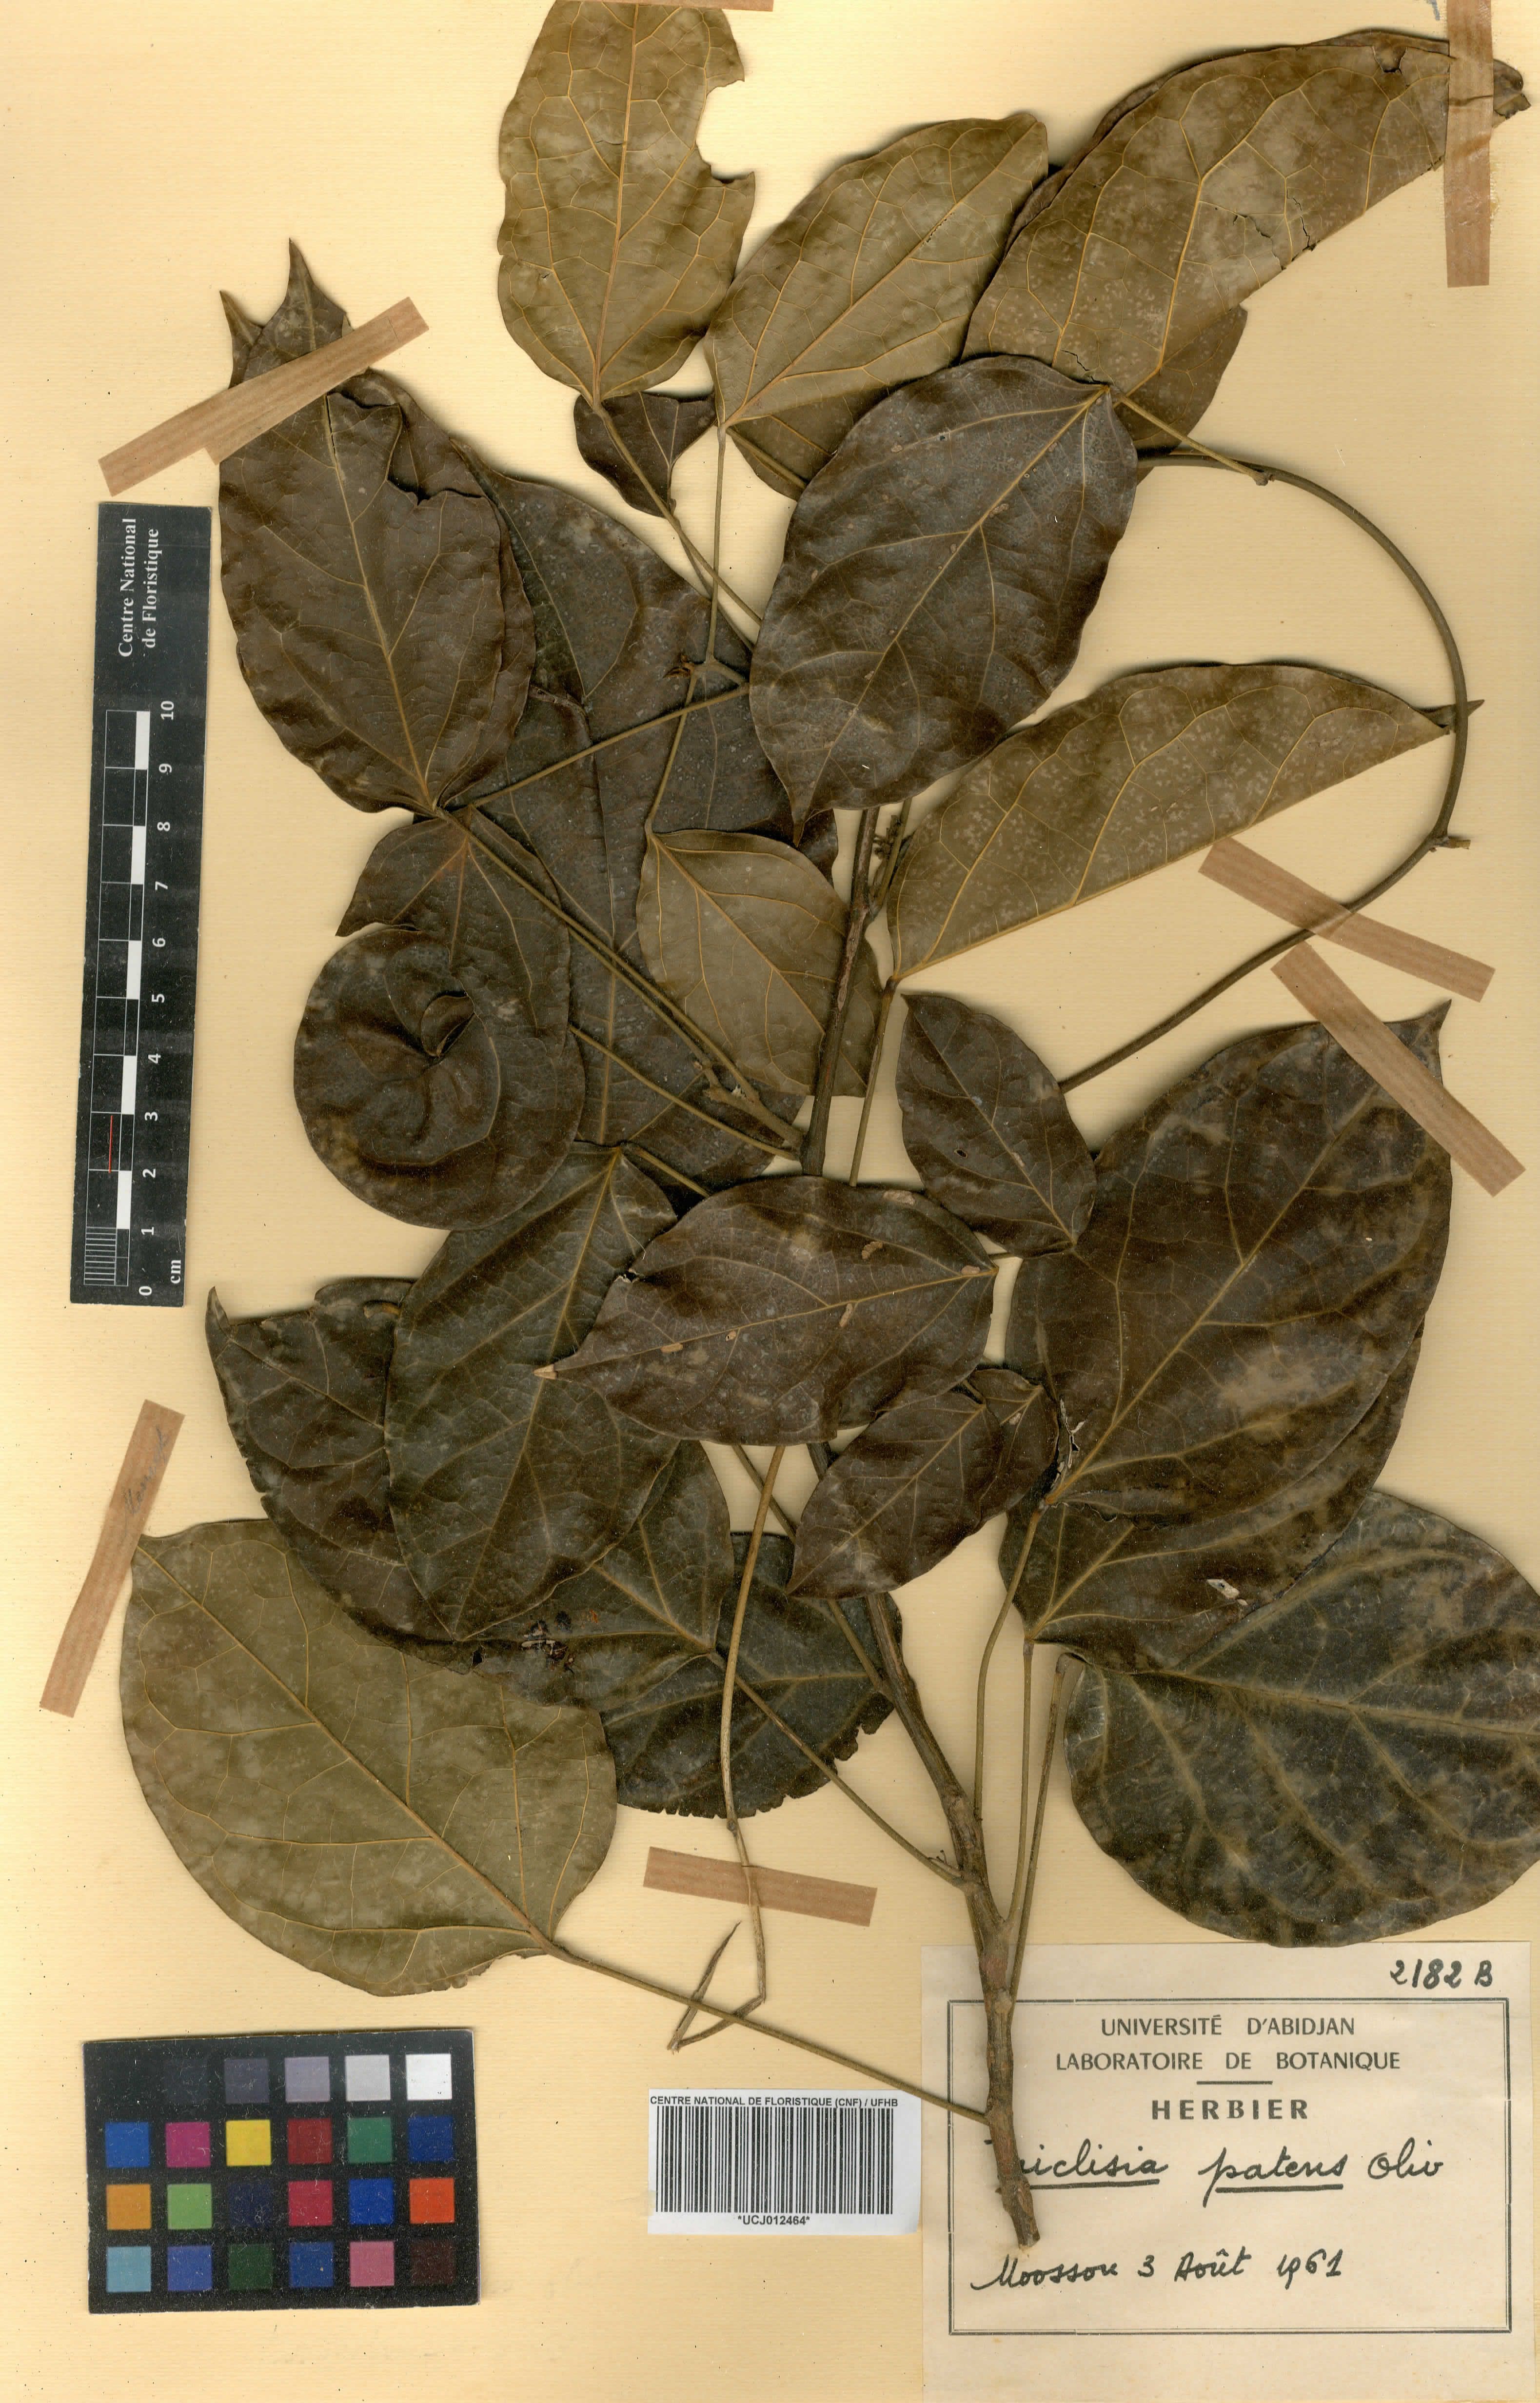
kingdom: Plantae
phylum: Tracheophyta
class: Magnoliopsida
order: Ranunculales
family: Menispermaceae
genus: Triclisia
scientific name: Triclisia patens
